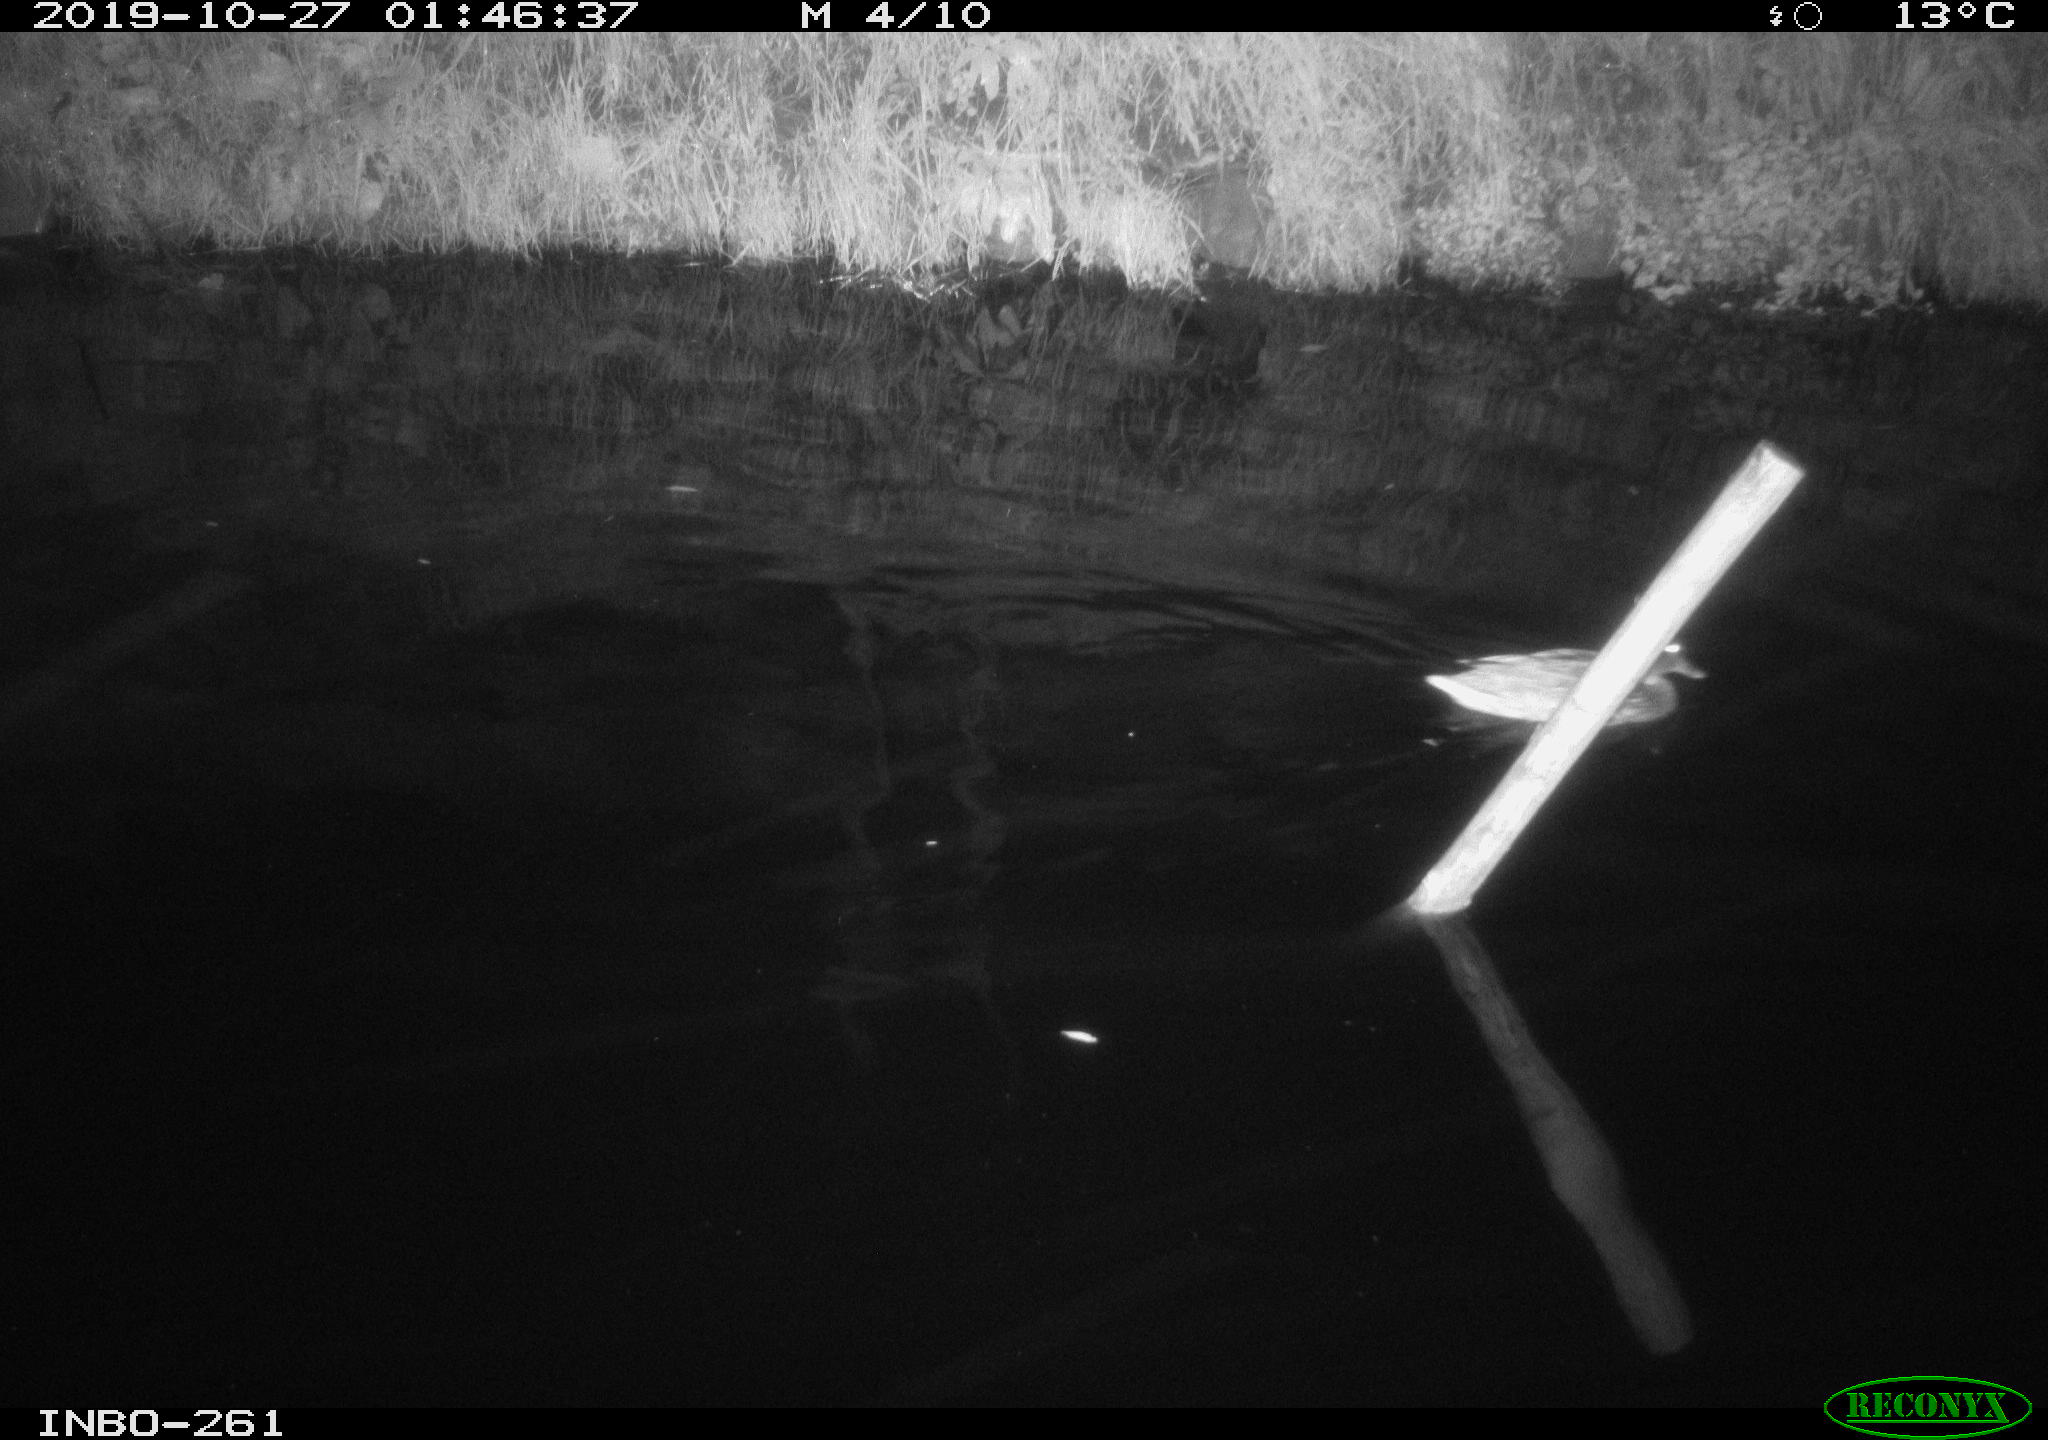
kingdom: Animalia
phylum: Chordata
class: Aves
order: Anseriformes
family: Anatidae
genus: Anas
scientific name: Anas platyrhynchos
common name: Mallard
